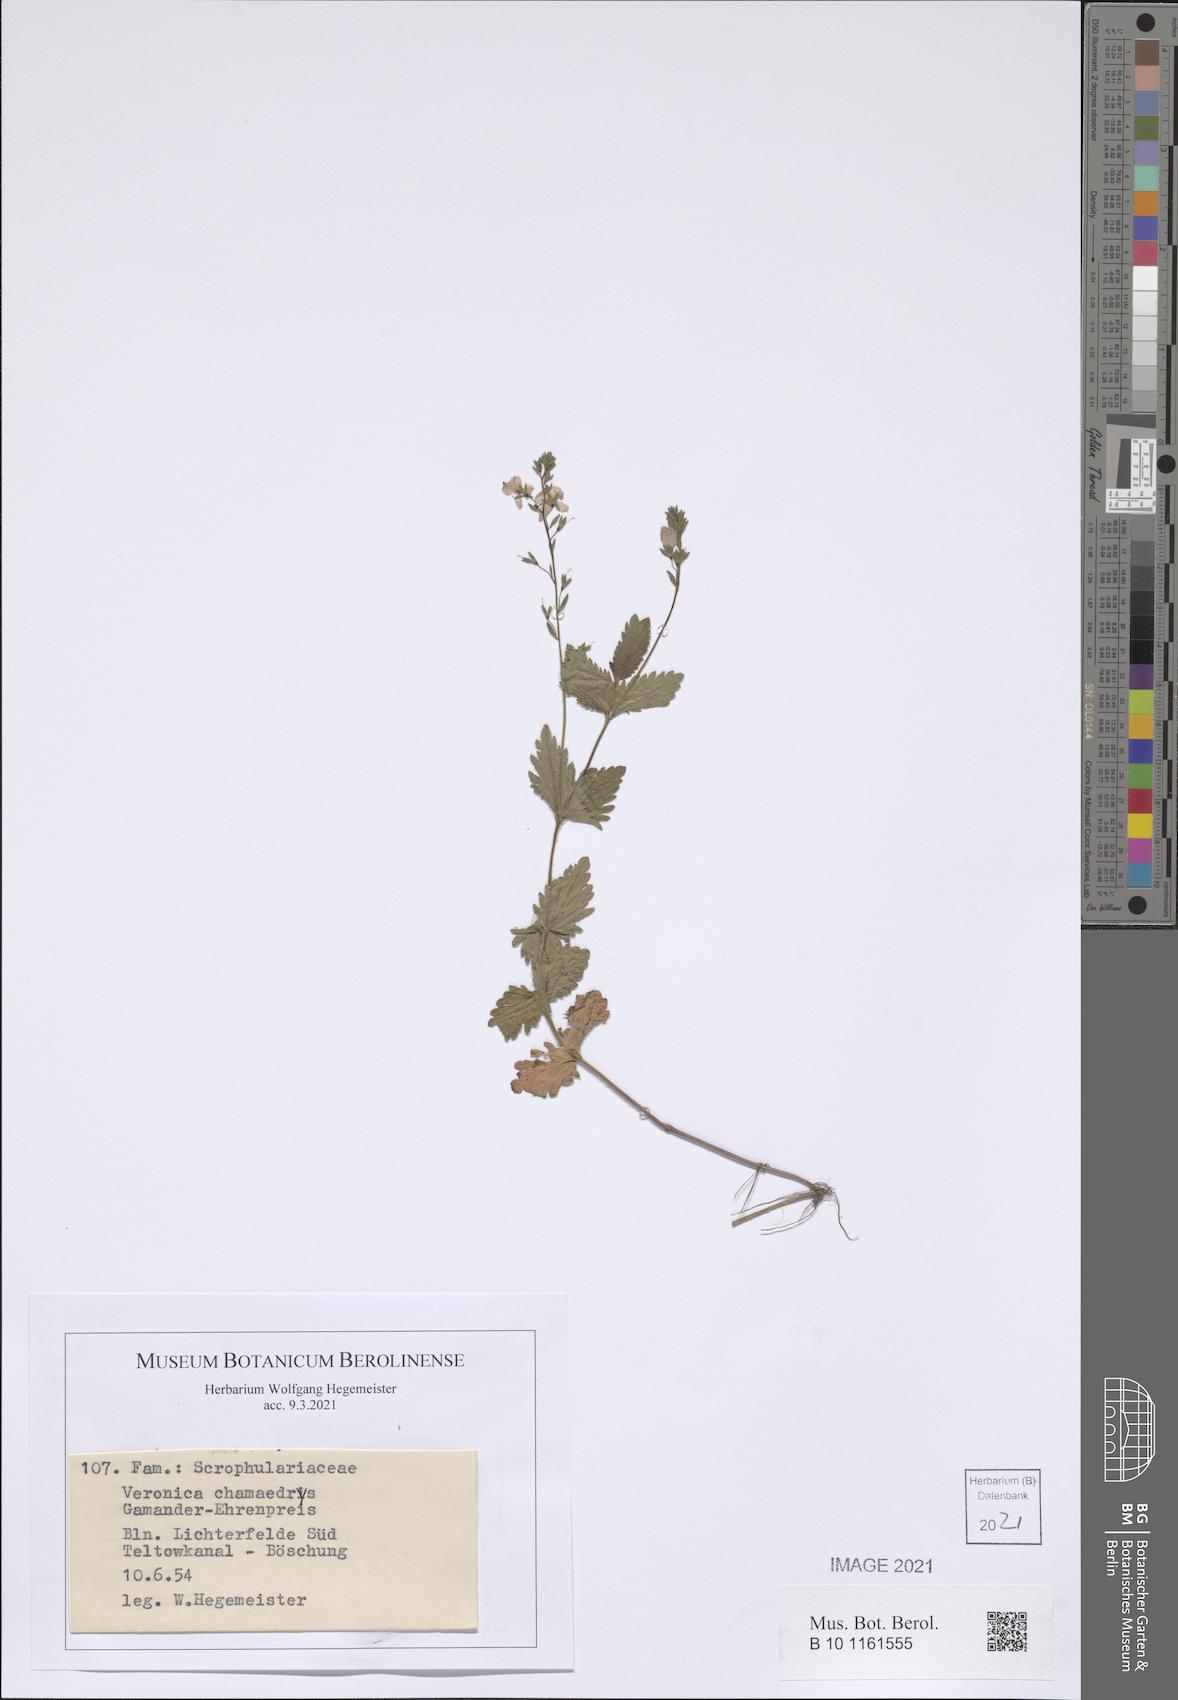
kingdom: Plantae
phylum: Tracheophyta
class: Magnoliopsida
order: Lamiales
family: Plantaginaceae
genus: Veronica
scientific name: Veronica chamaedrys
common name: Germander speedwell
